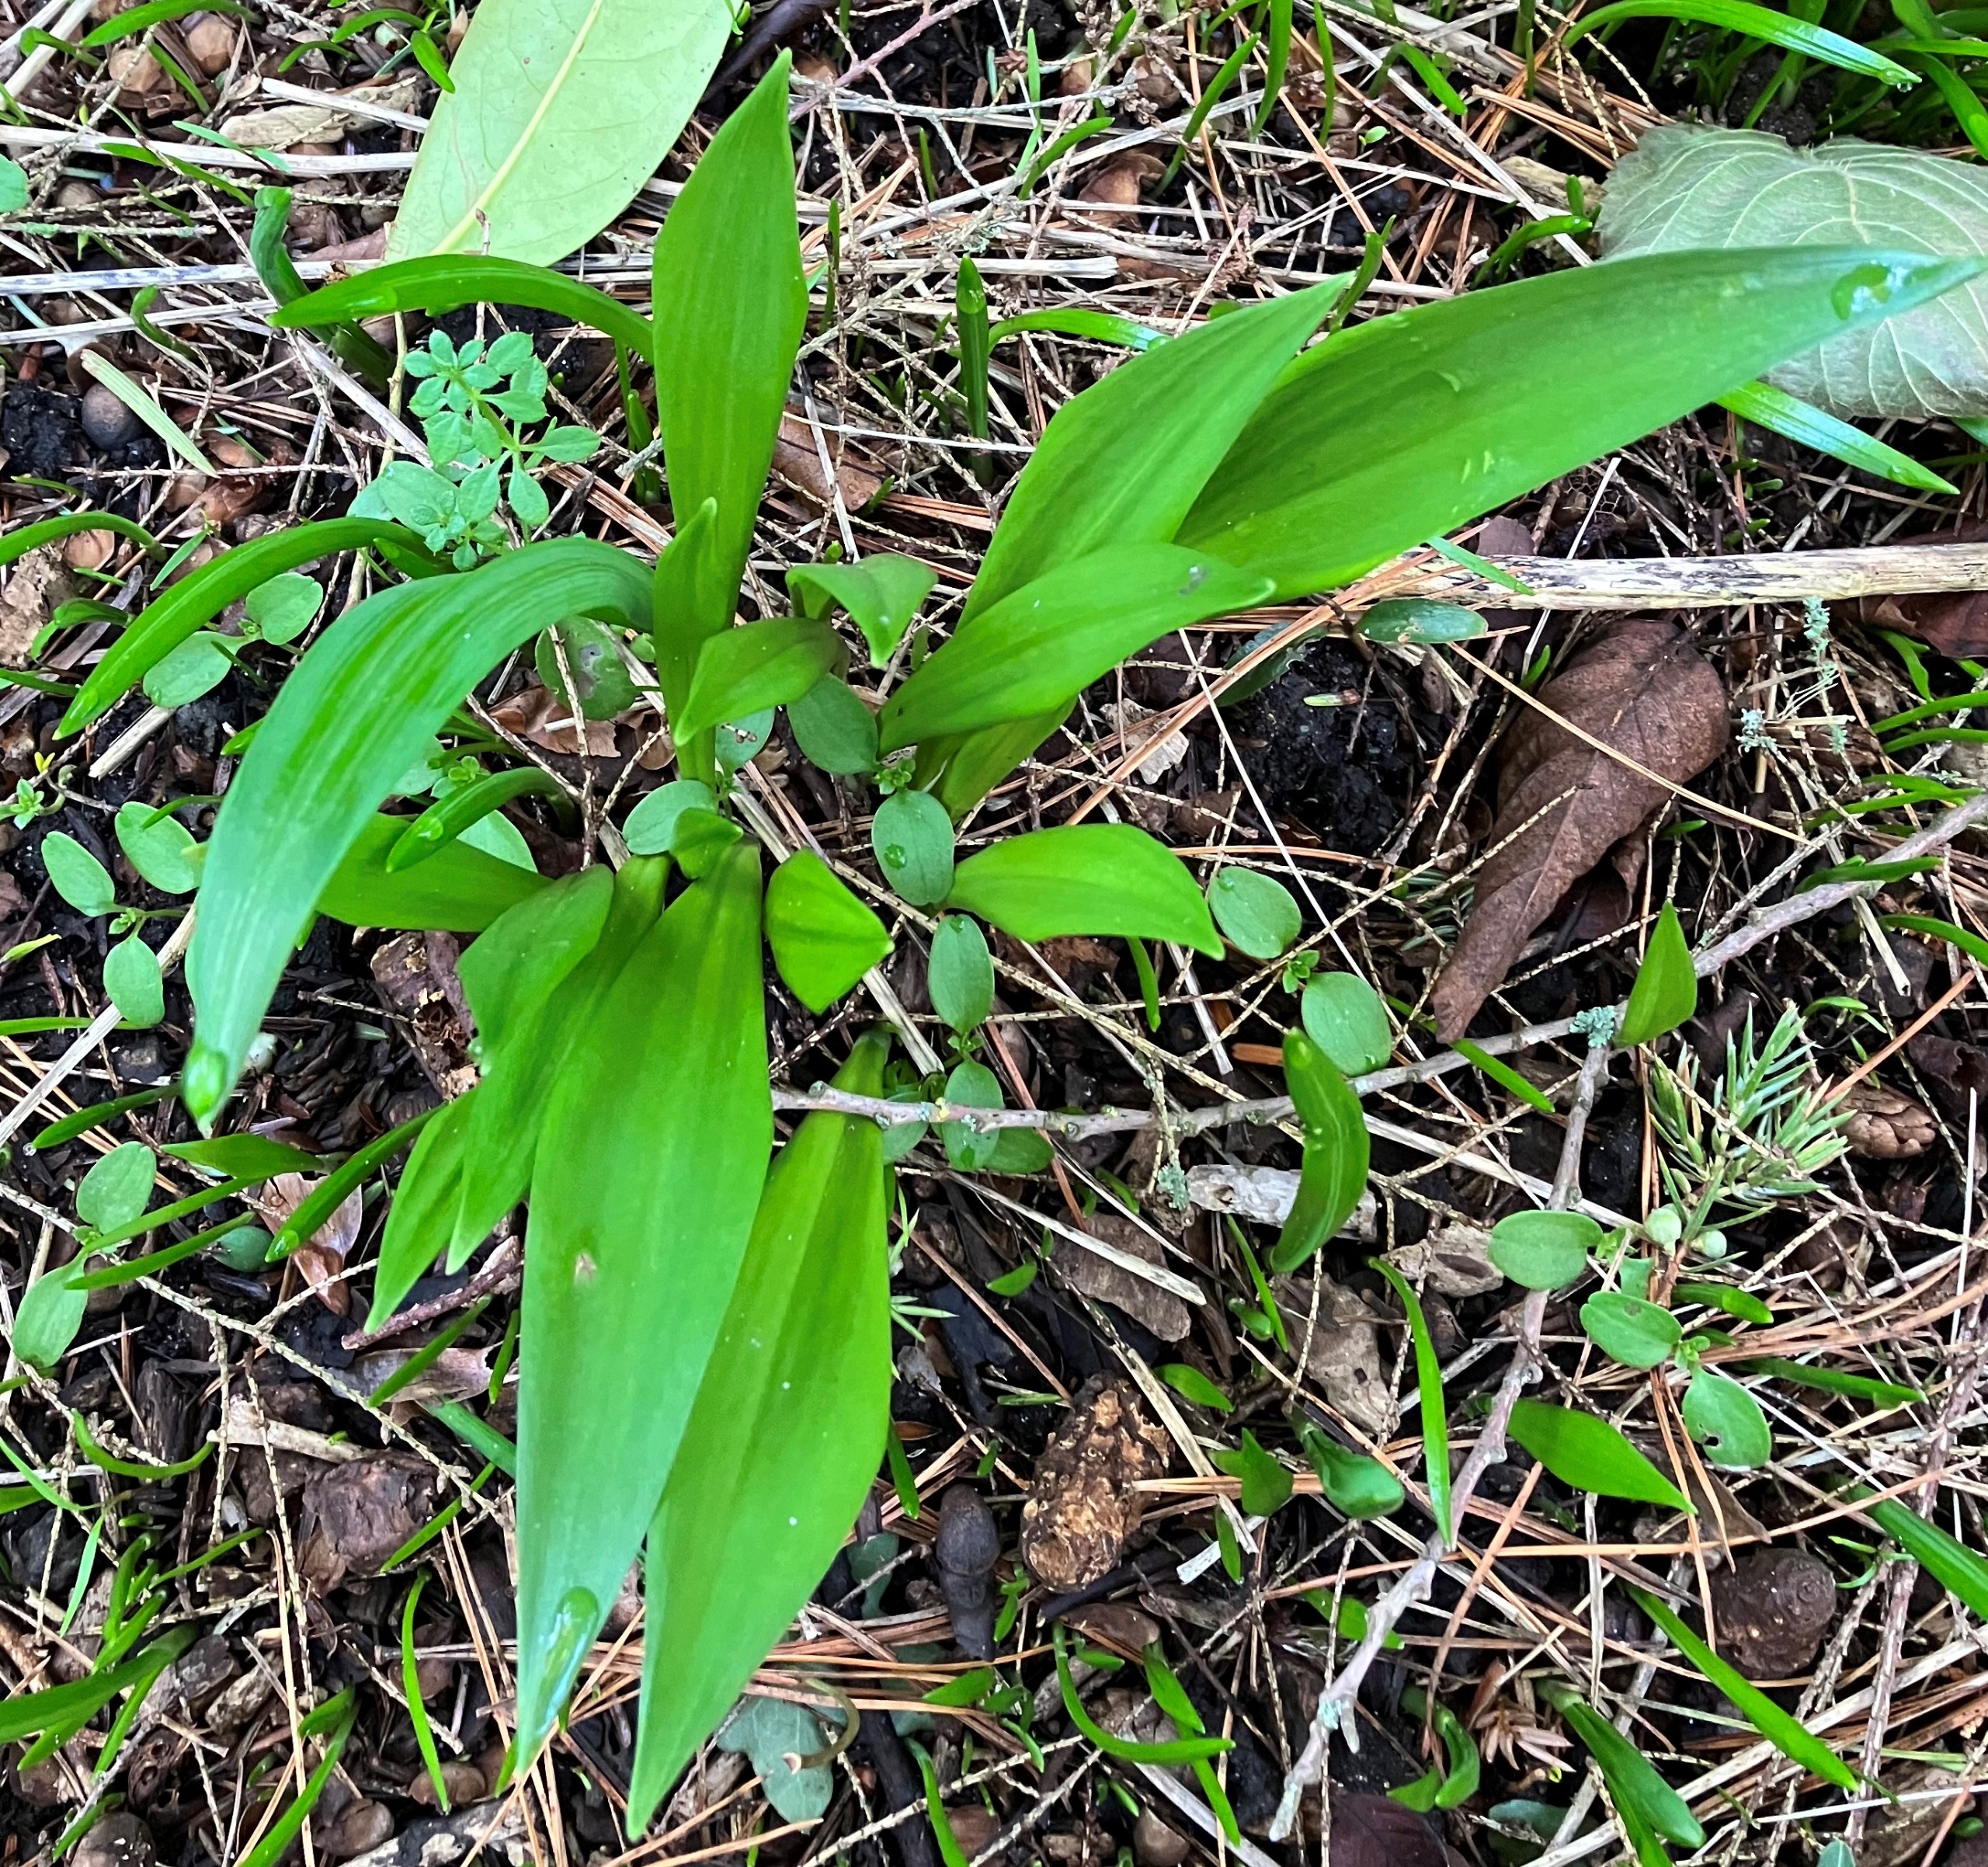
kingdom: Plantae
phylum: Tracheophyta
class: Liliopsida
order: Asparagales
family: Amaryllidaceae
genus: Allium
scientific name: Allium ursinum
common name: Rams-løg
